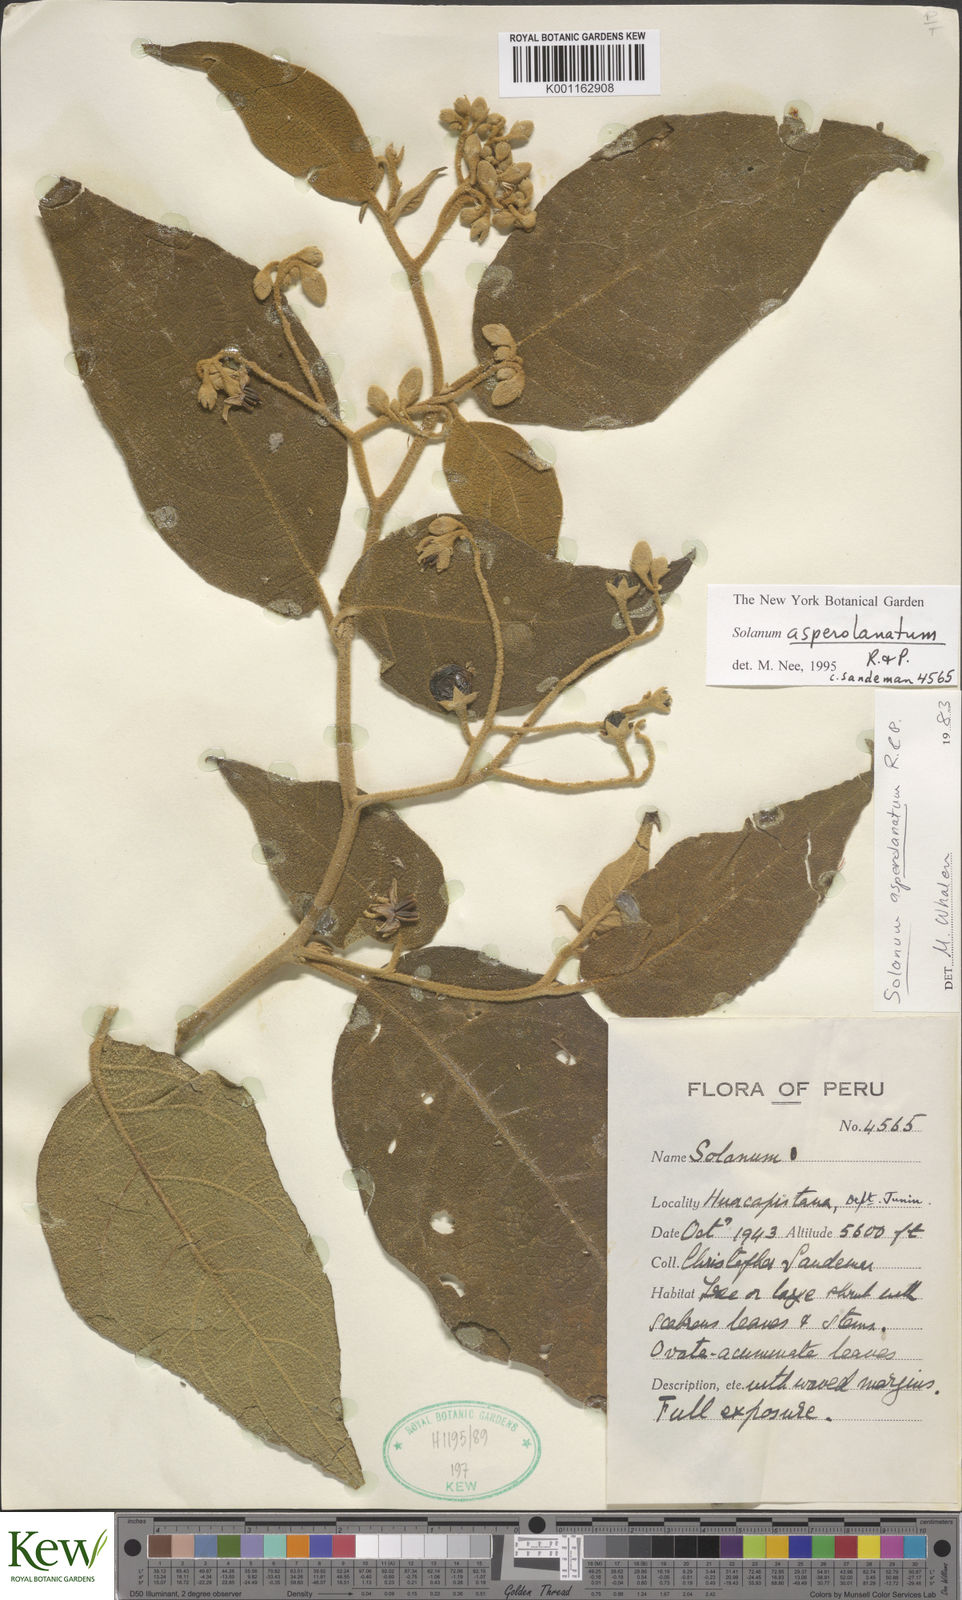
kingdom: Plantae
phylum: Tracheophyta
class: Magnoliopsida
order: Solanales
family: Solanaceae
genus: Solanum
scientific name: Solanum asperolanatum
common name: Devil's-fig
